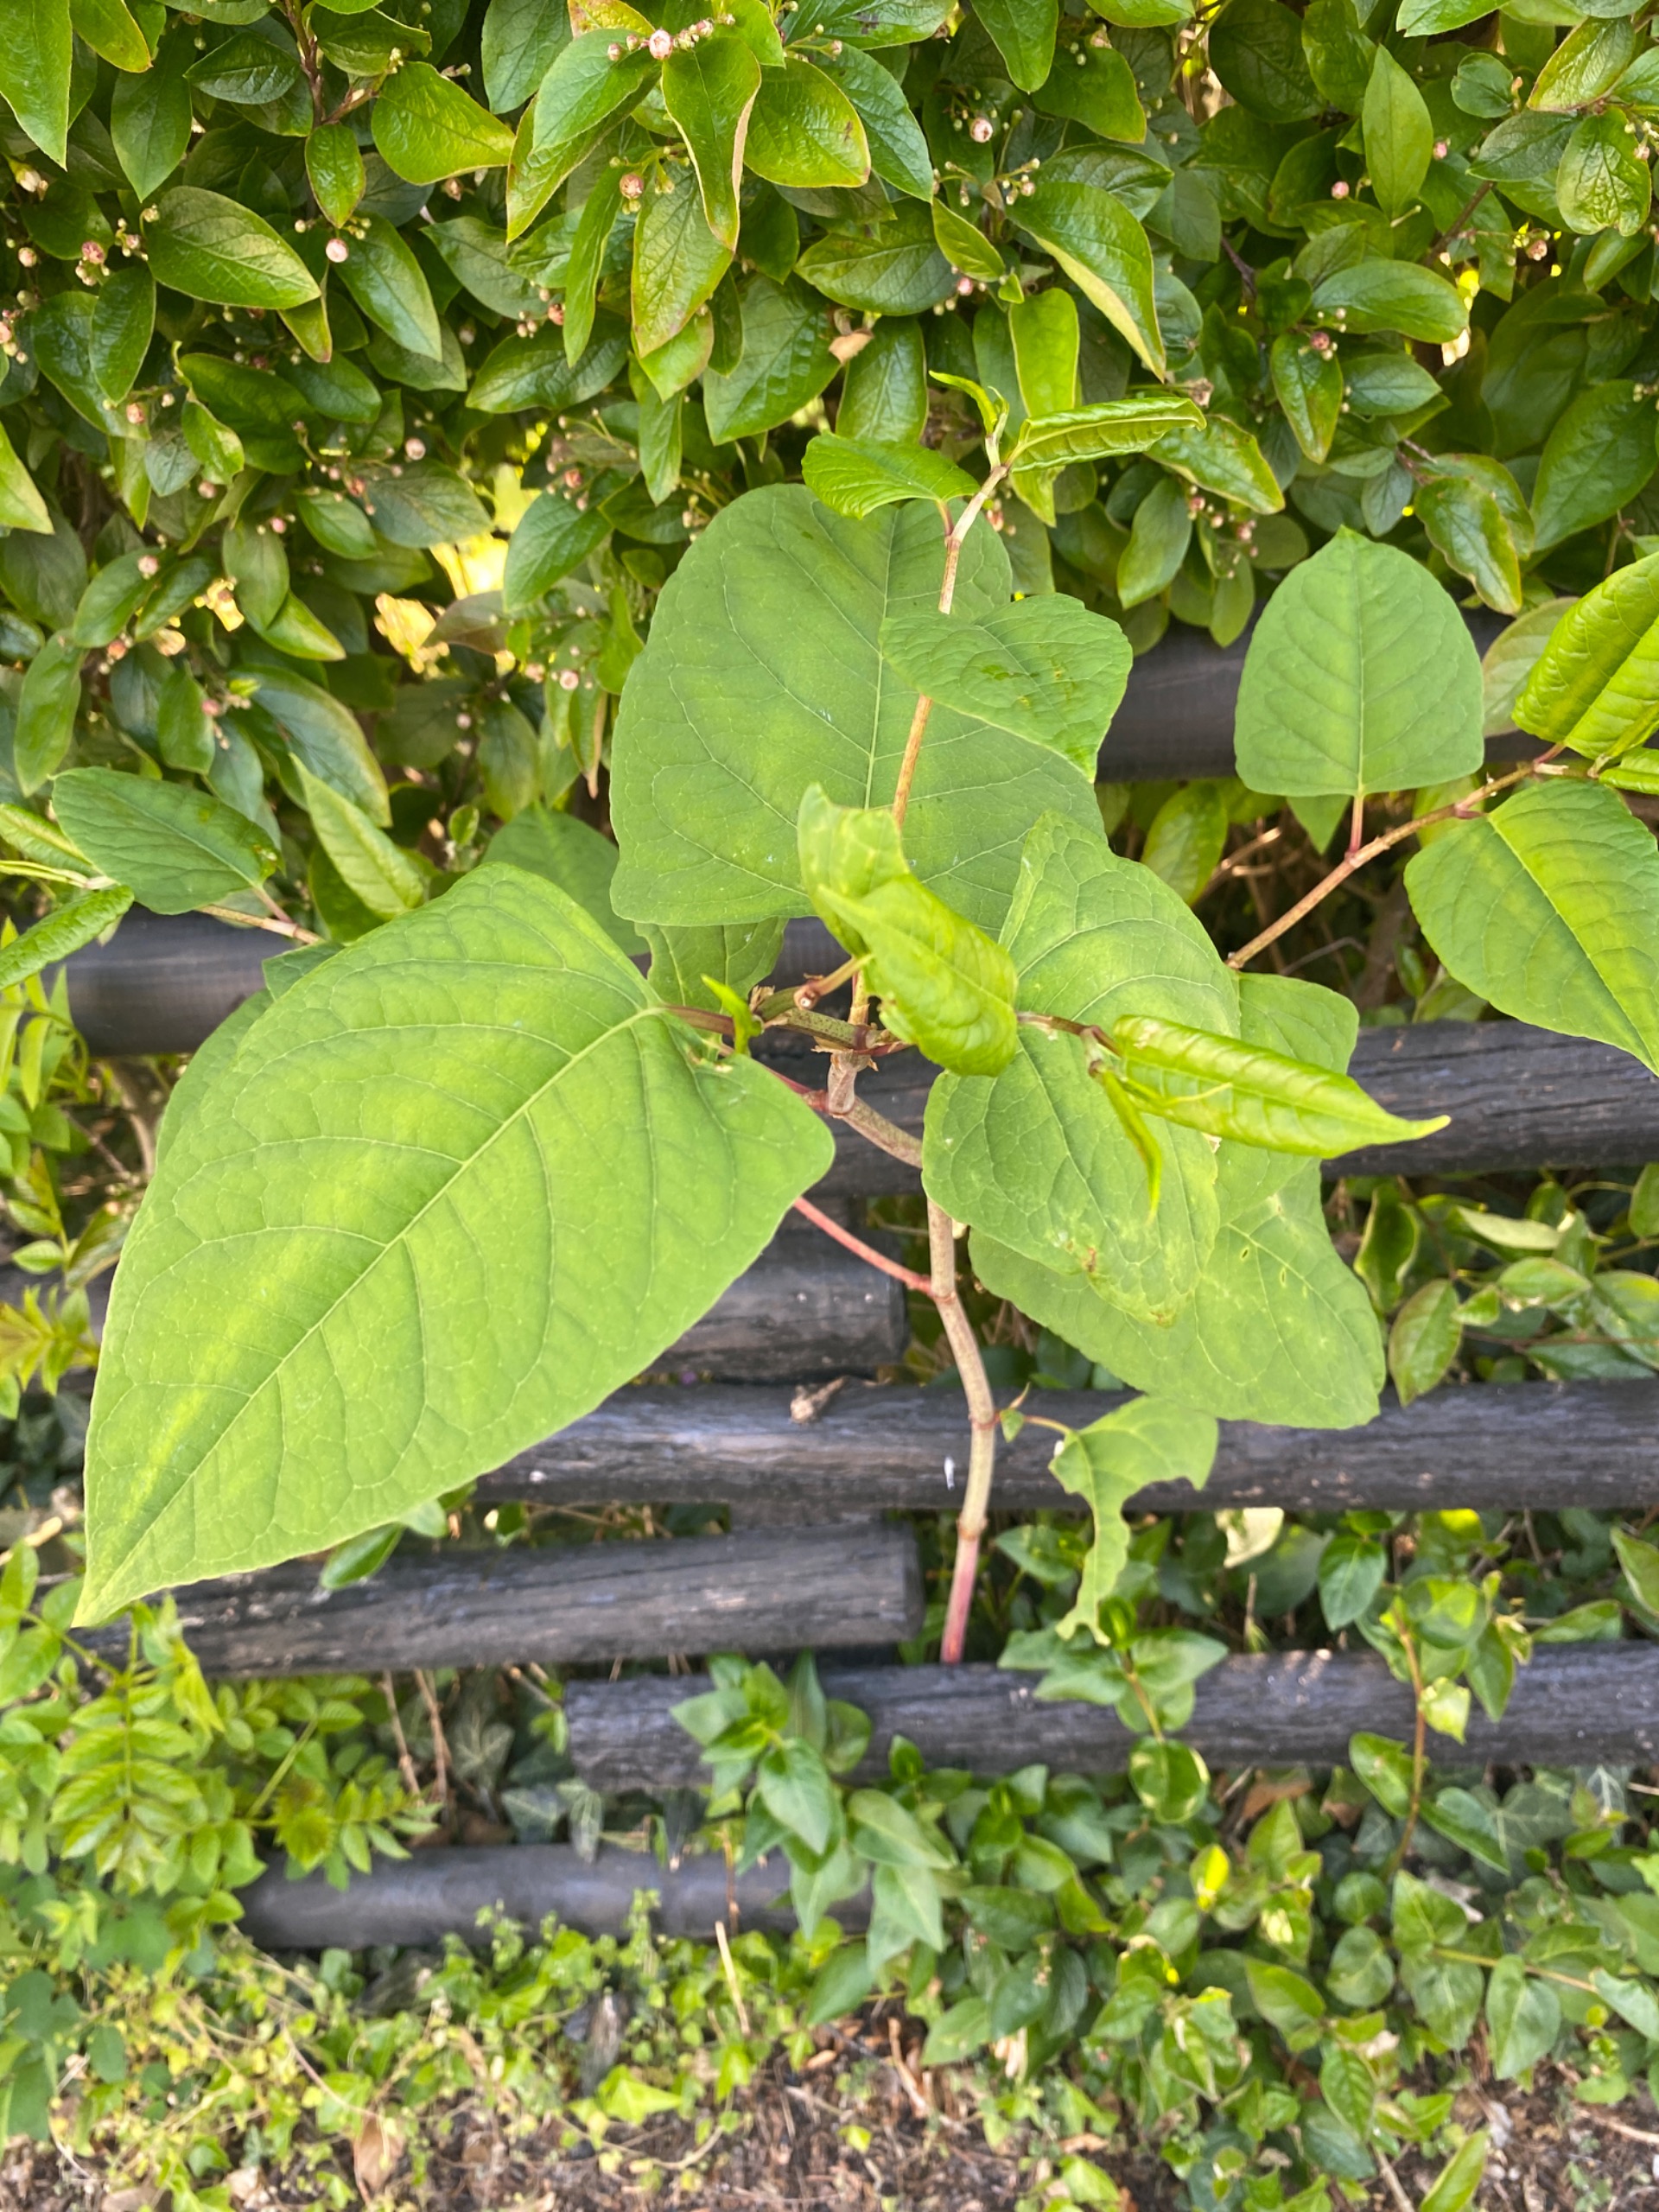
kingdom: Plantae
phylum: Tracheophyta
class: Magnoliopsida
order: Caryophyllales
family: Polygonaceae
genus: Reynoutria
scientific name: Reynoutria japonica
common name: Japan-pileurt
